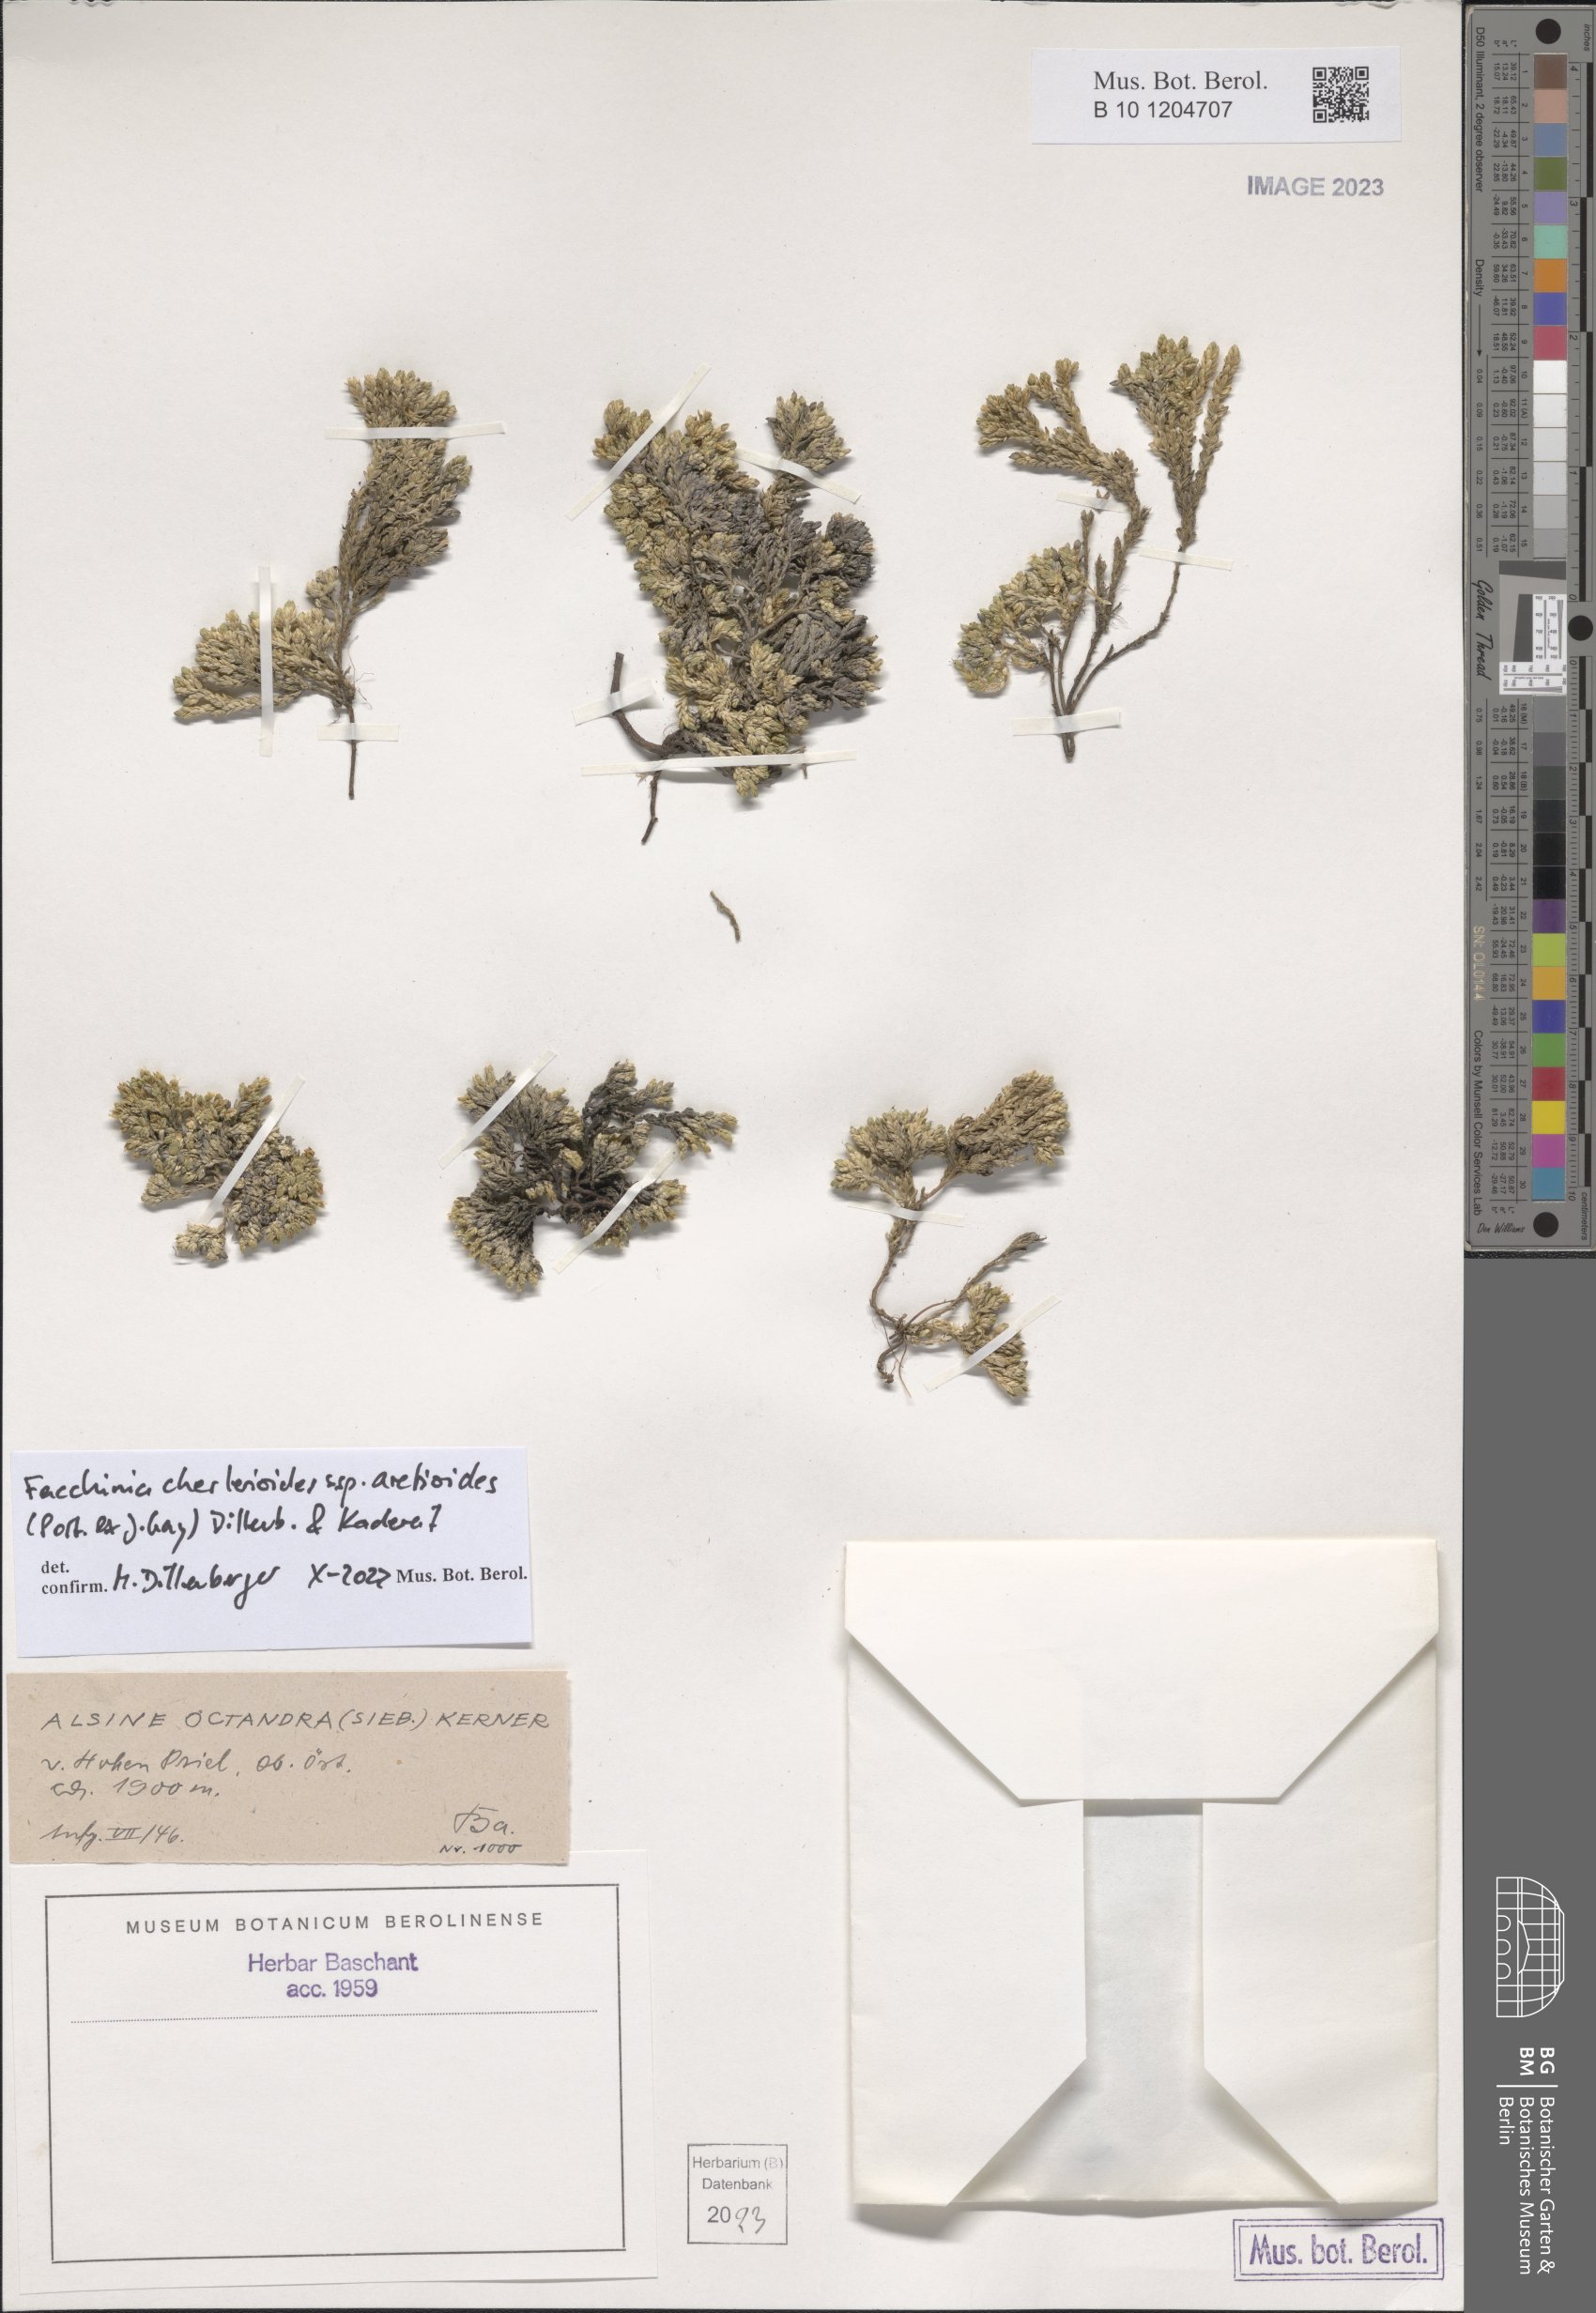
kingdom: Plantae
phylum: Tracheophyta
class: Magnoliopsida
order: Caryophyllales
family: Caryophyllaceae
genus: Facchinia
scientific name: Facchinia cherlerioides
